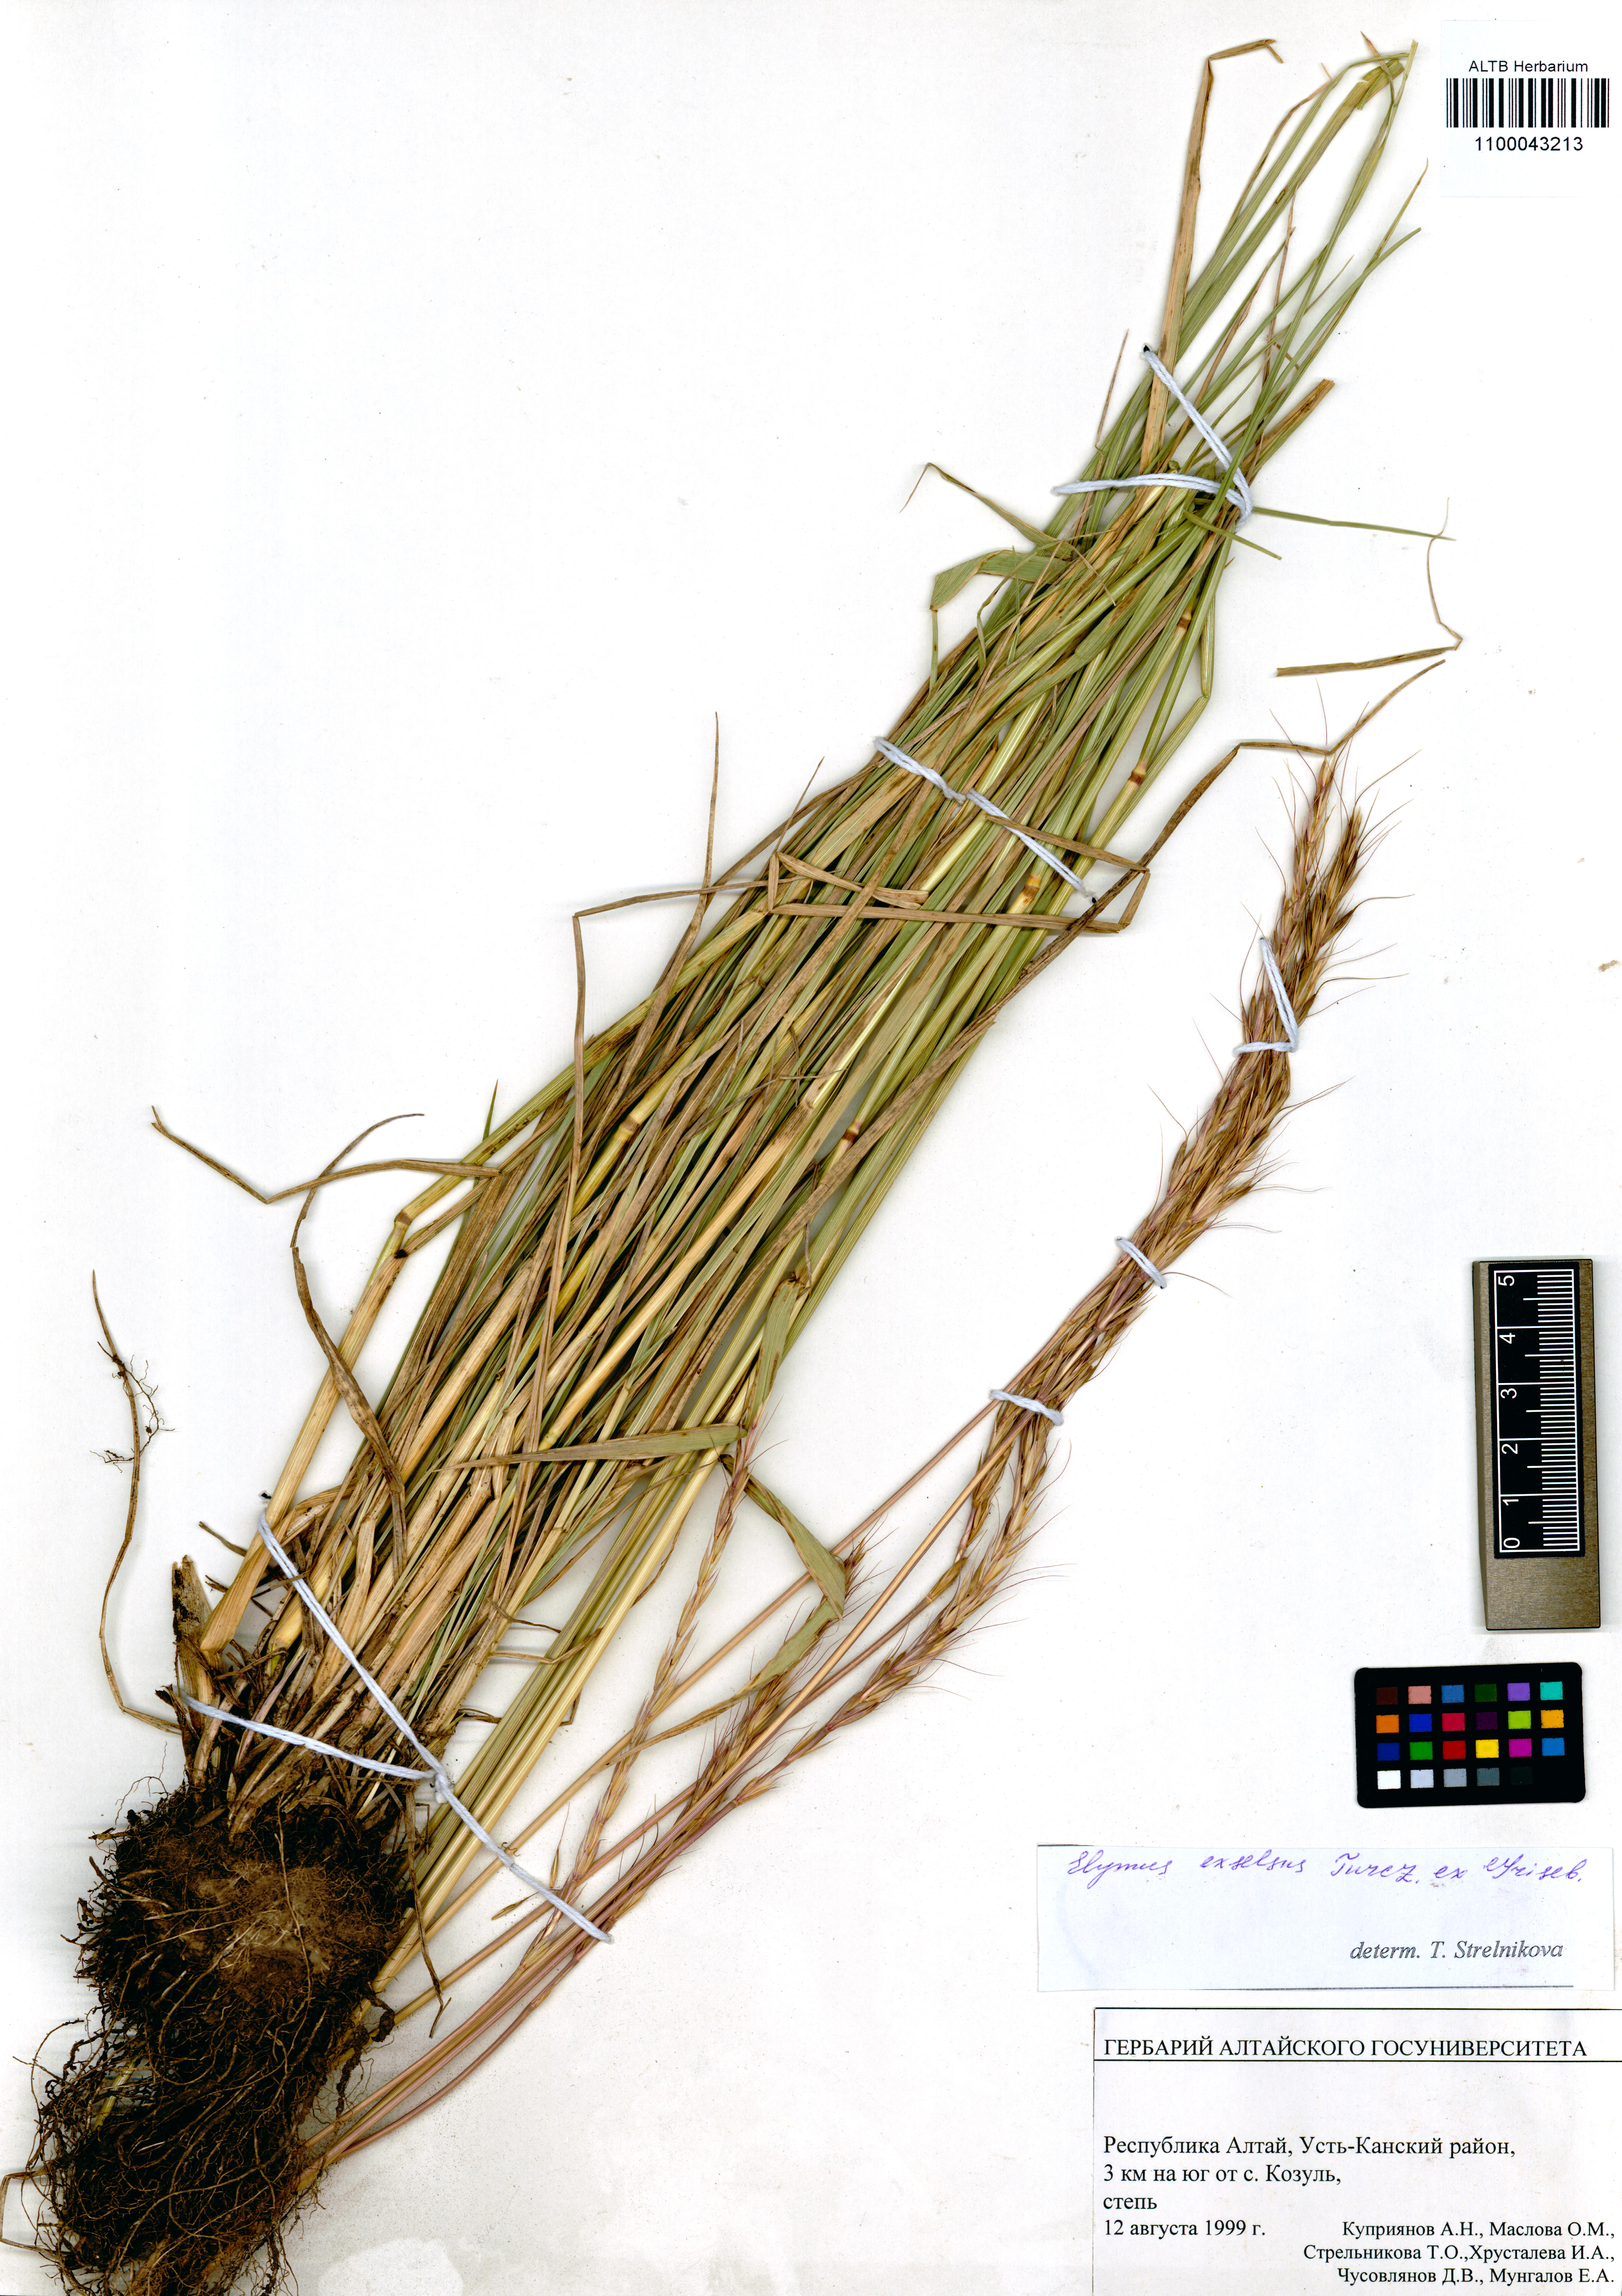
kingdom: Plantae
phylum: Tracheophyta
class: Liliopsida
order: Poales
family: Poaceae
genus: Elymus
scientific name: Elymus dahuricus
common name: Dahurian wild rye
